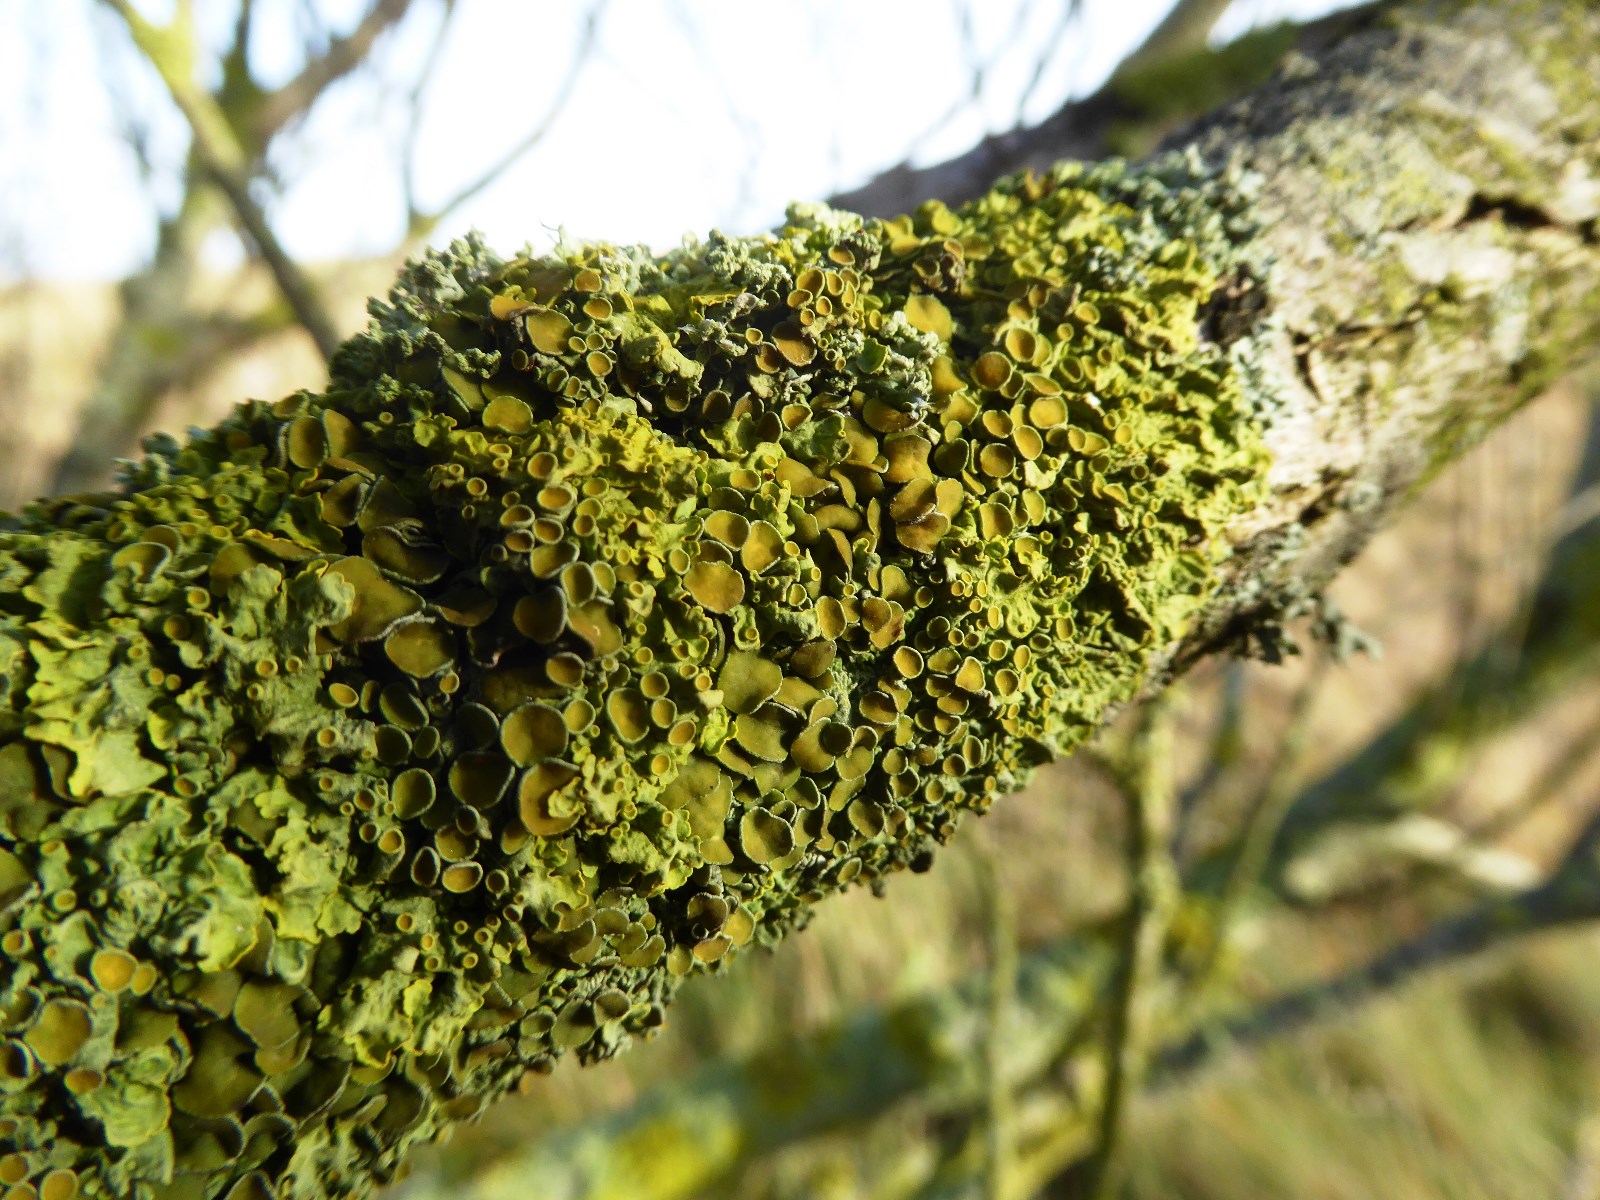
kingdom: Fungi
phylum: Ascomycota
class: Lecanoromycetes
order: Teloschistales
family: Teloschistaceae
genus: Xanthoria
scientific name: Xanthoria parietina
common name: almindelig væggelav
